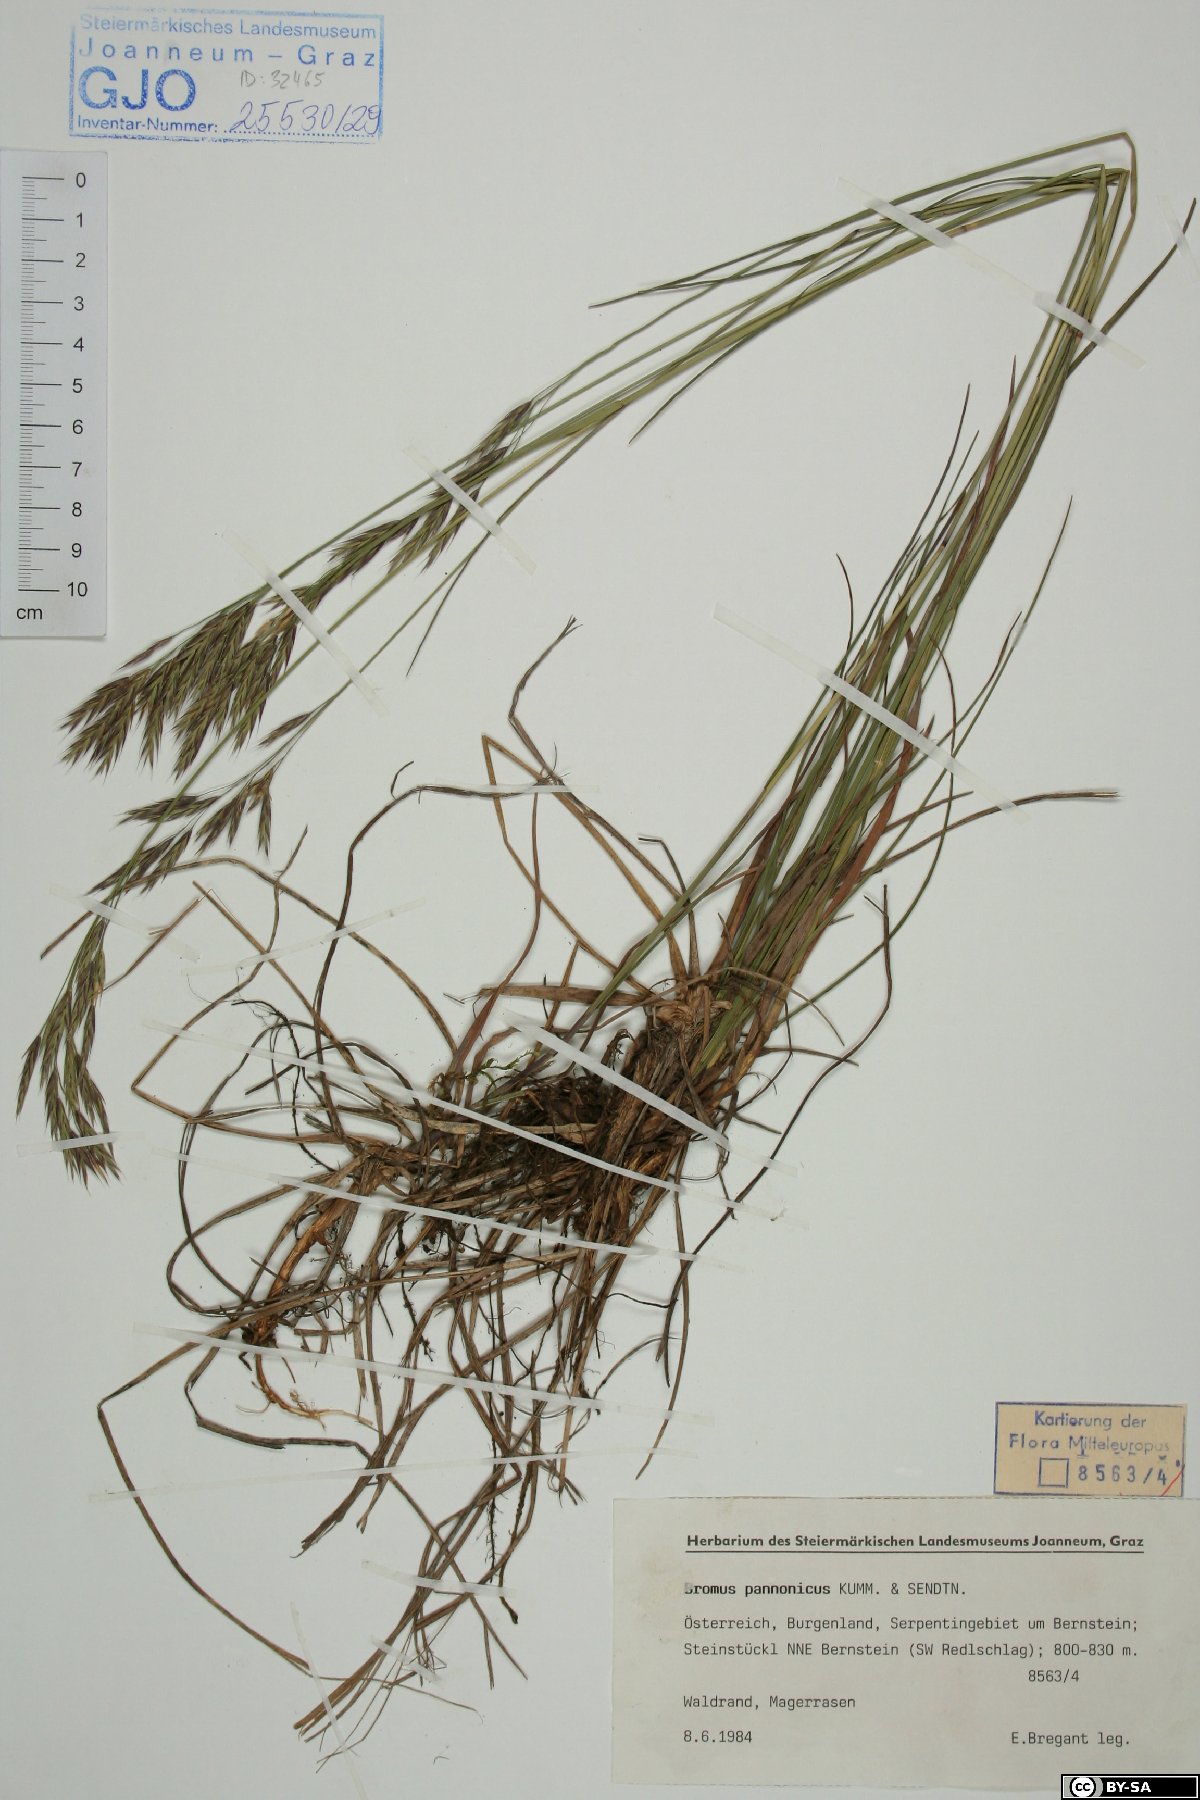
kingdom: Plantae
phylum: Tracheophyta
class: Liliopsida
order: Poales
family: Poaceae
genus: Bromus
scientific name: Bromus pannonicus
